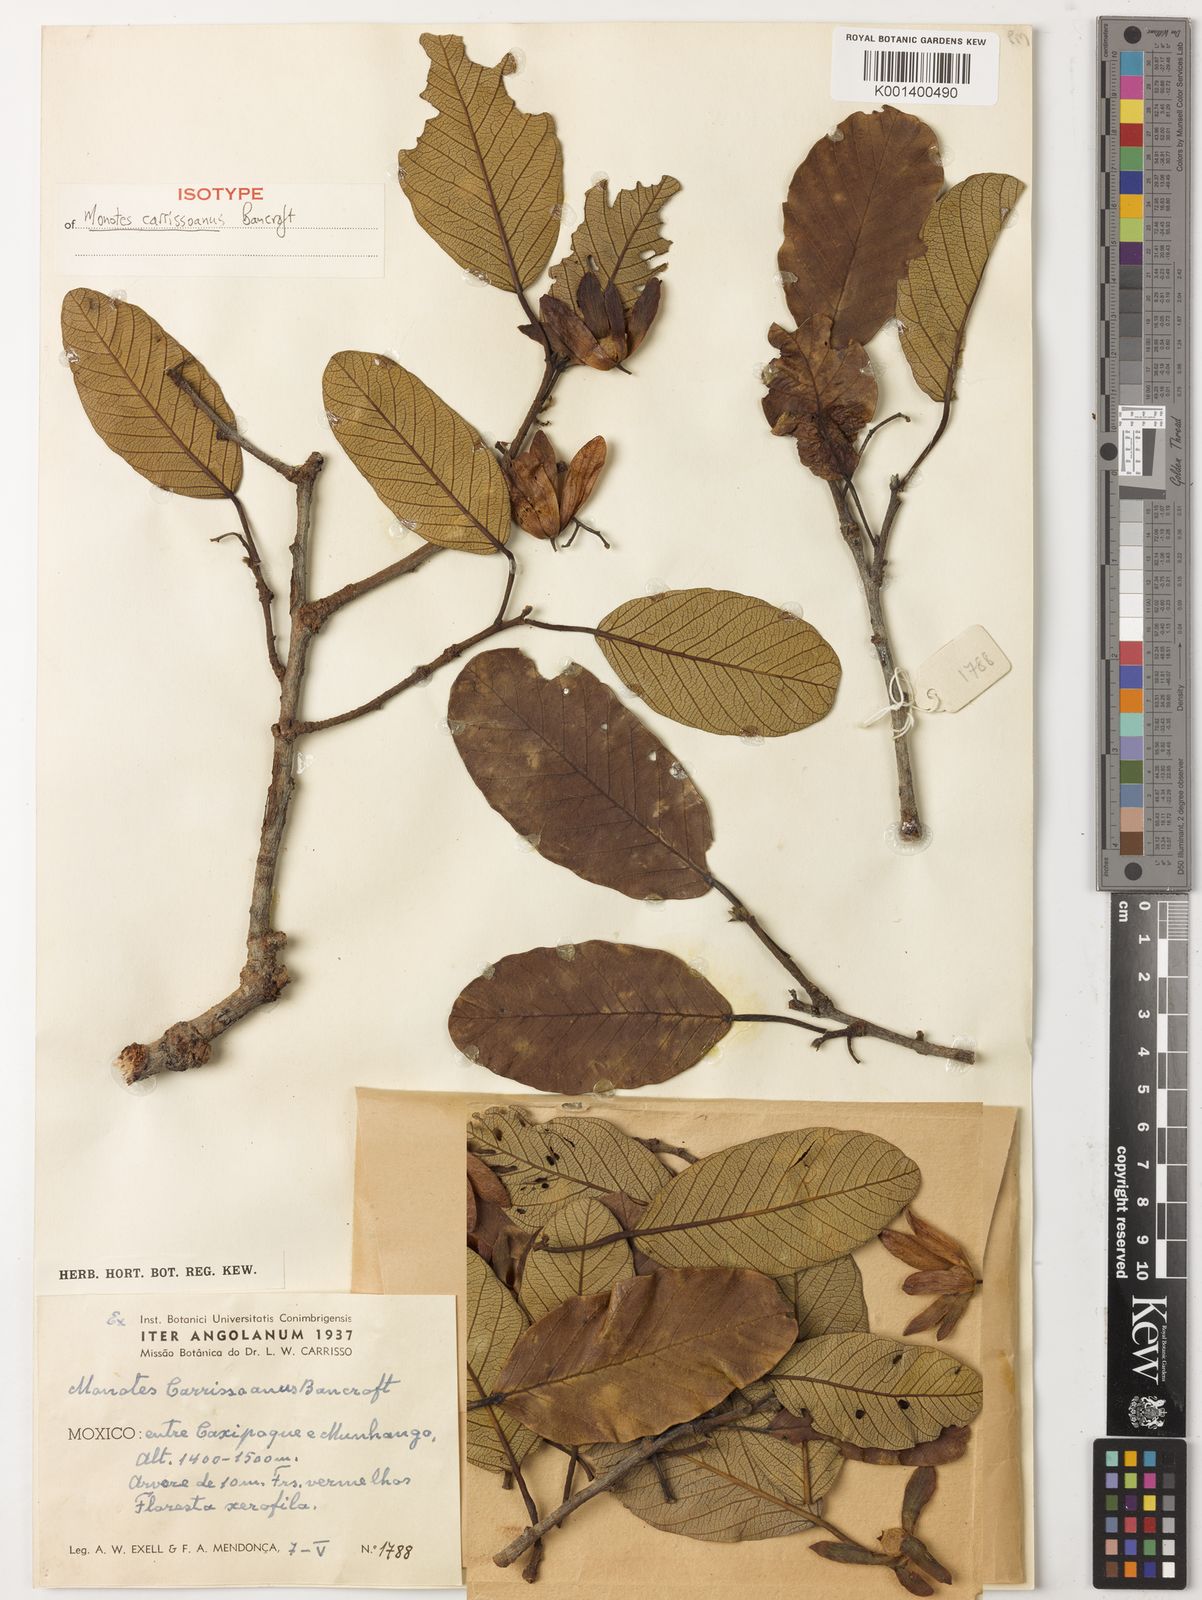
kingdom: Plantae
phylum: Tracheophyta
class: Magnoliopsida
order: Malvales
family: Dipterocarpaceae
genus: Monotes
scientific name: Monotes hypoleucus
